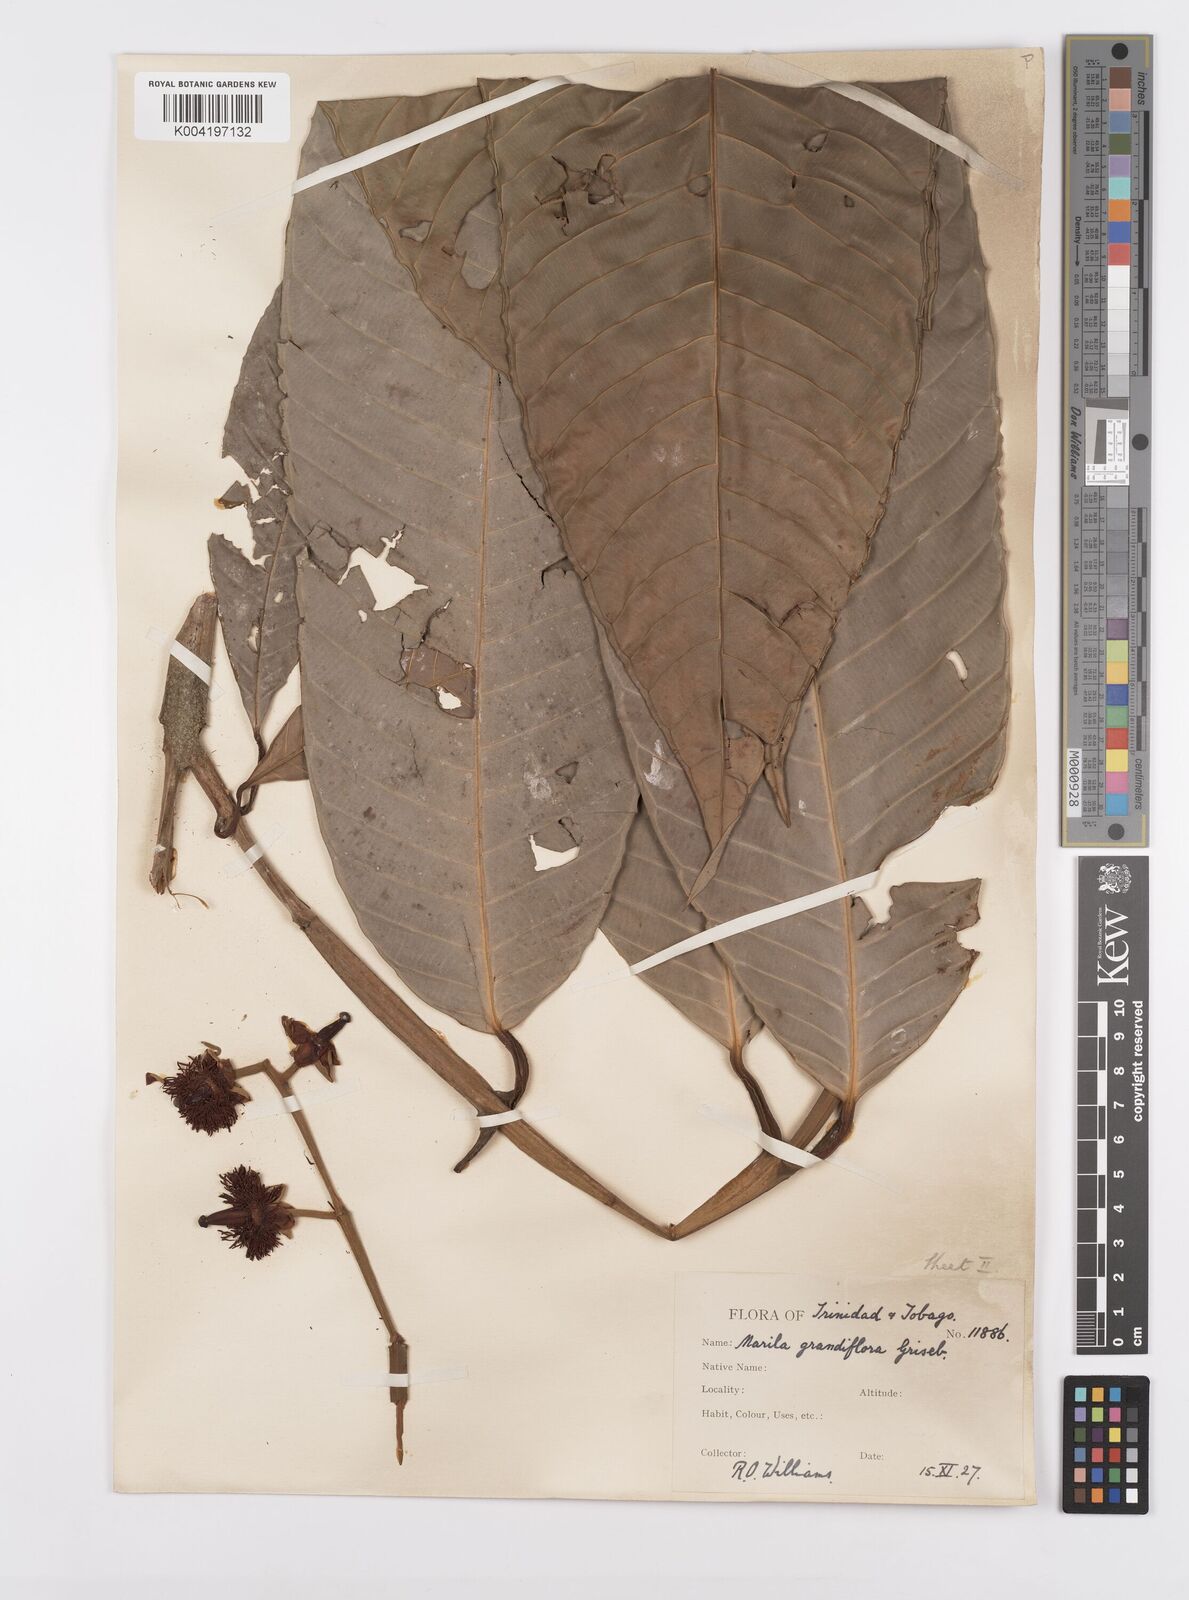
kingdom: Plantae
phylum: Tracheophyta
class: Magnoliopsida
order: Malpighiales
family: Calophyllaceae
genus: Marila
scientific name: Marila grandiflora
